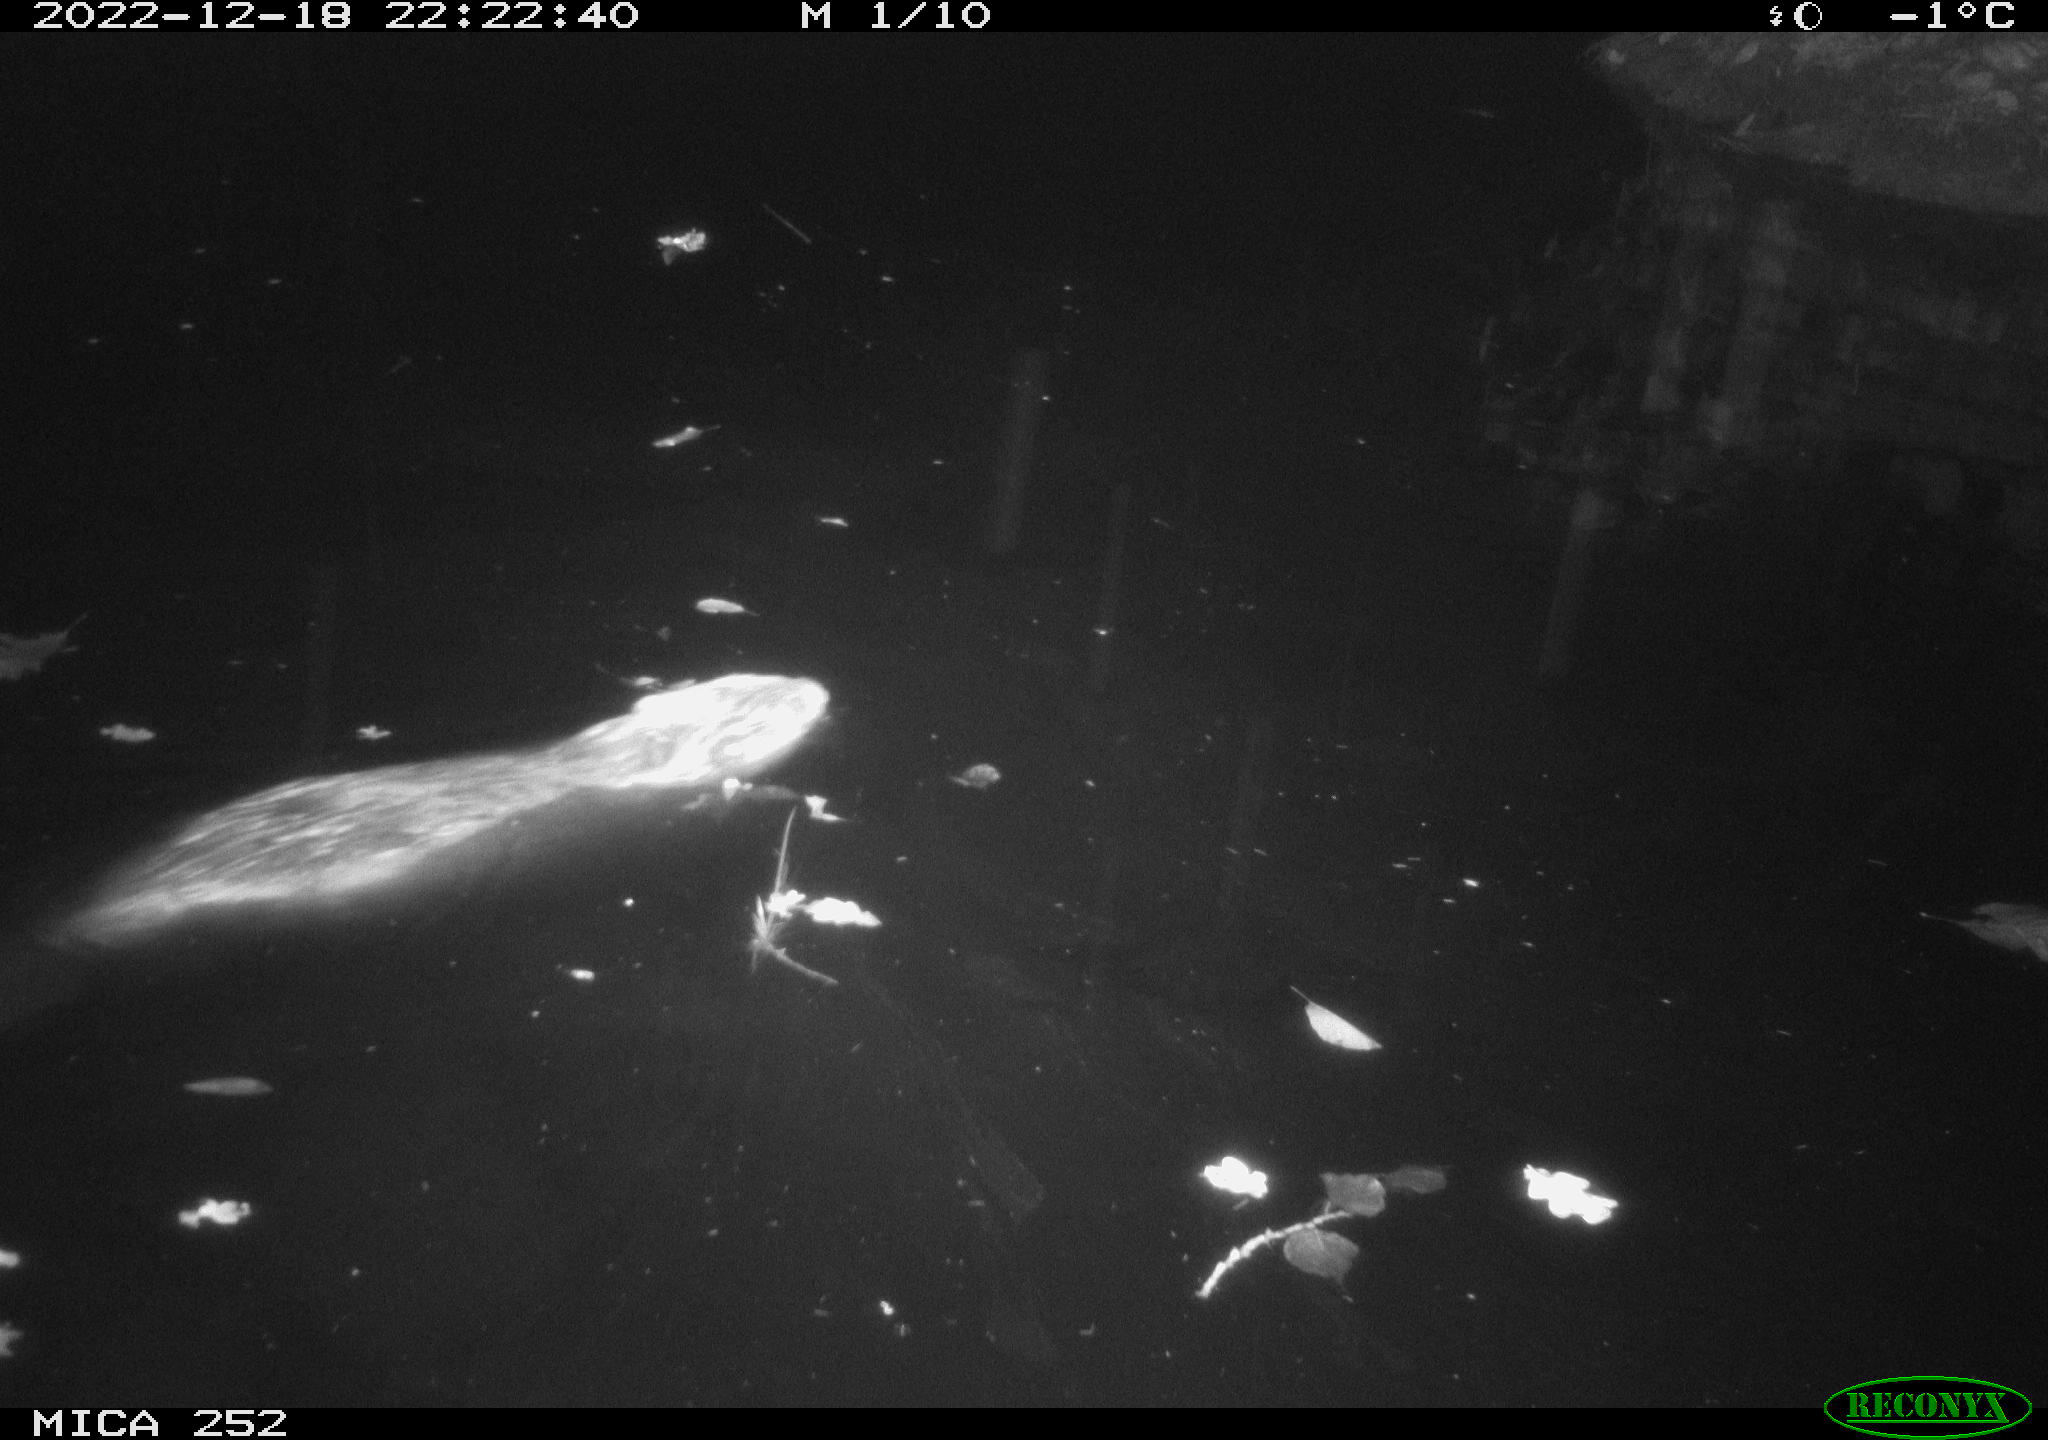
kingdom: Animalia
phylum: Chordata
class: Mammalia
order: Rodentia
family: Castoridae
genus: Castor
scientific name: Castor fiber
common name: Eurasian beaver
